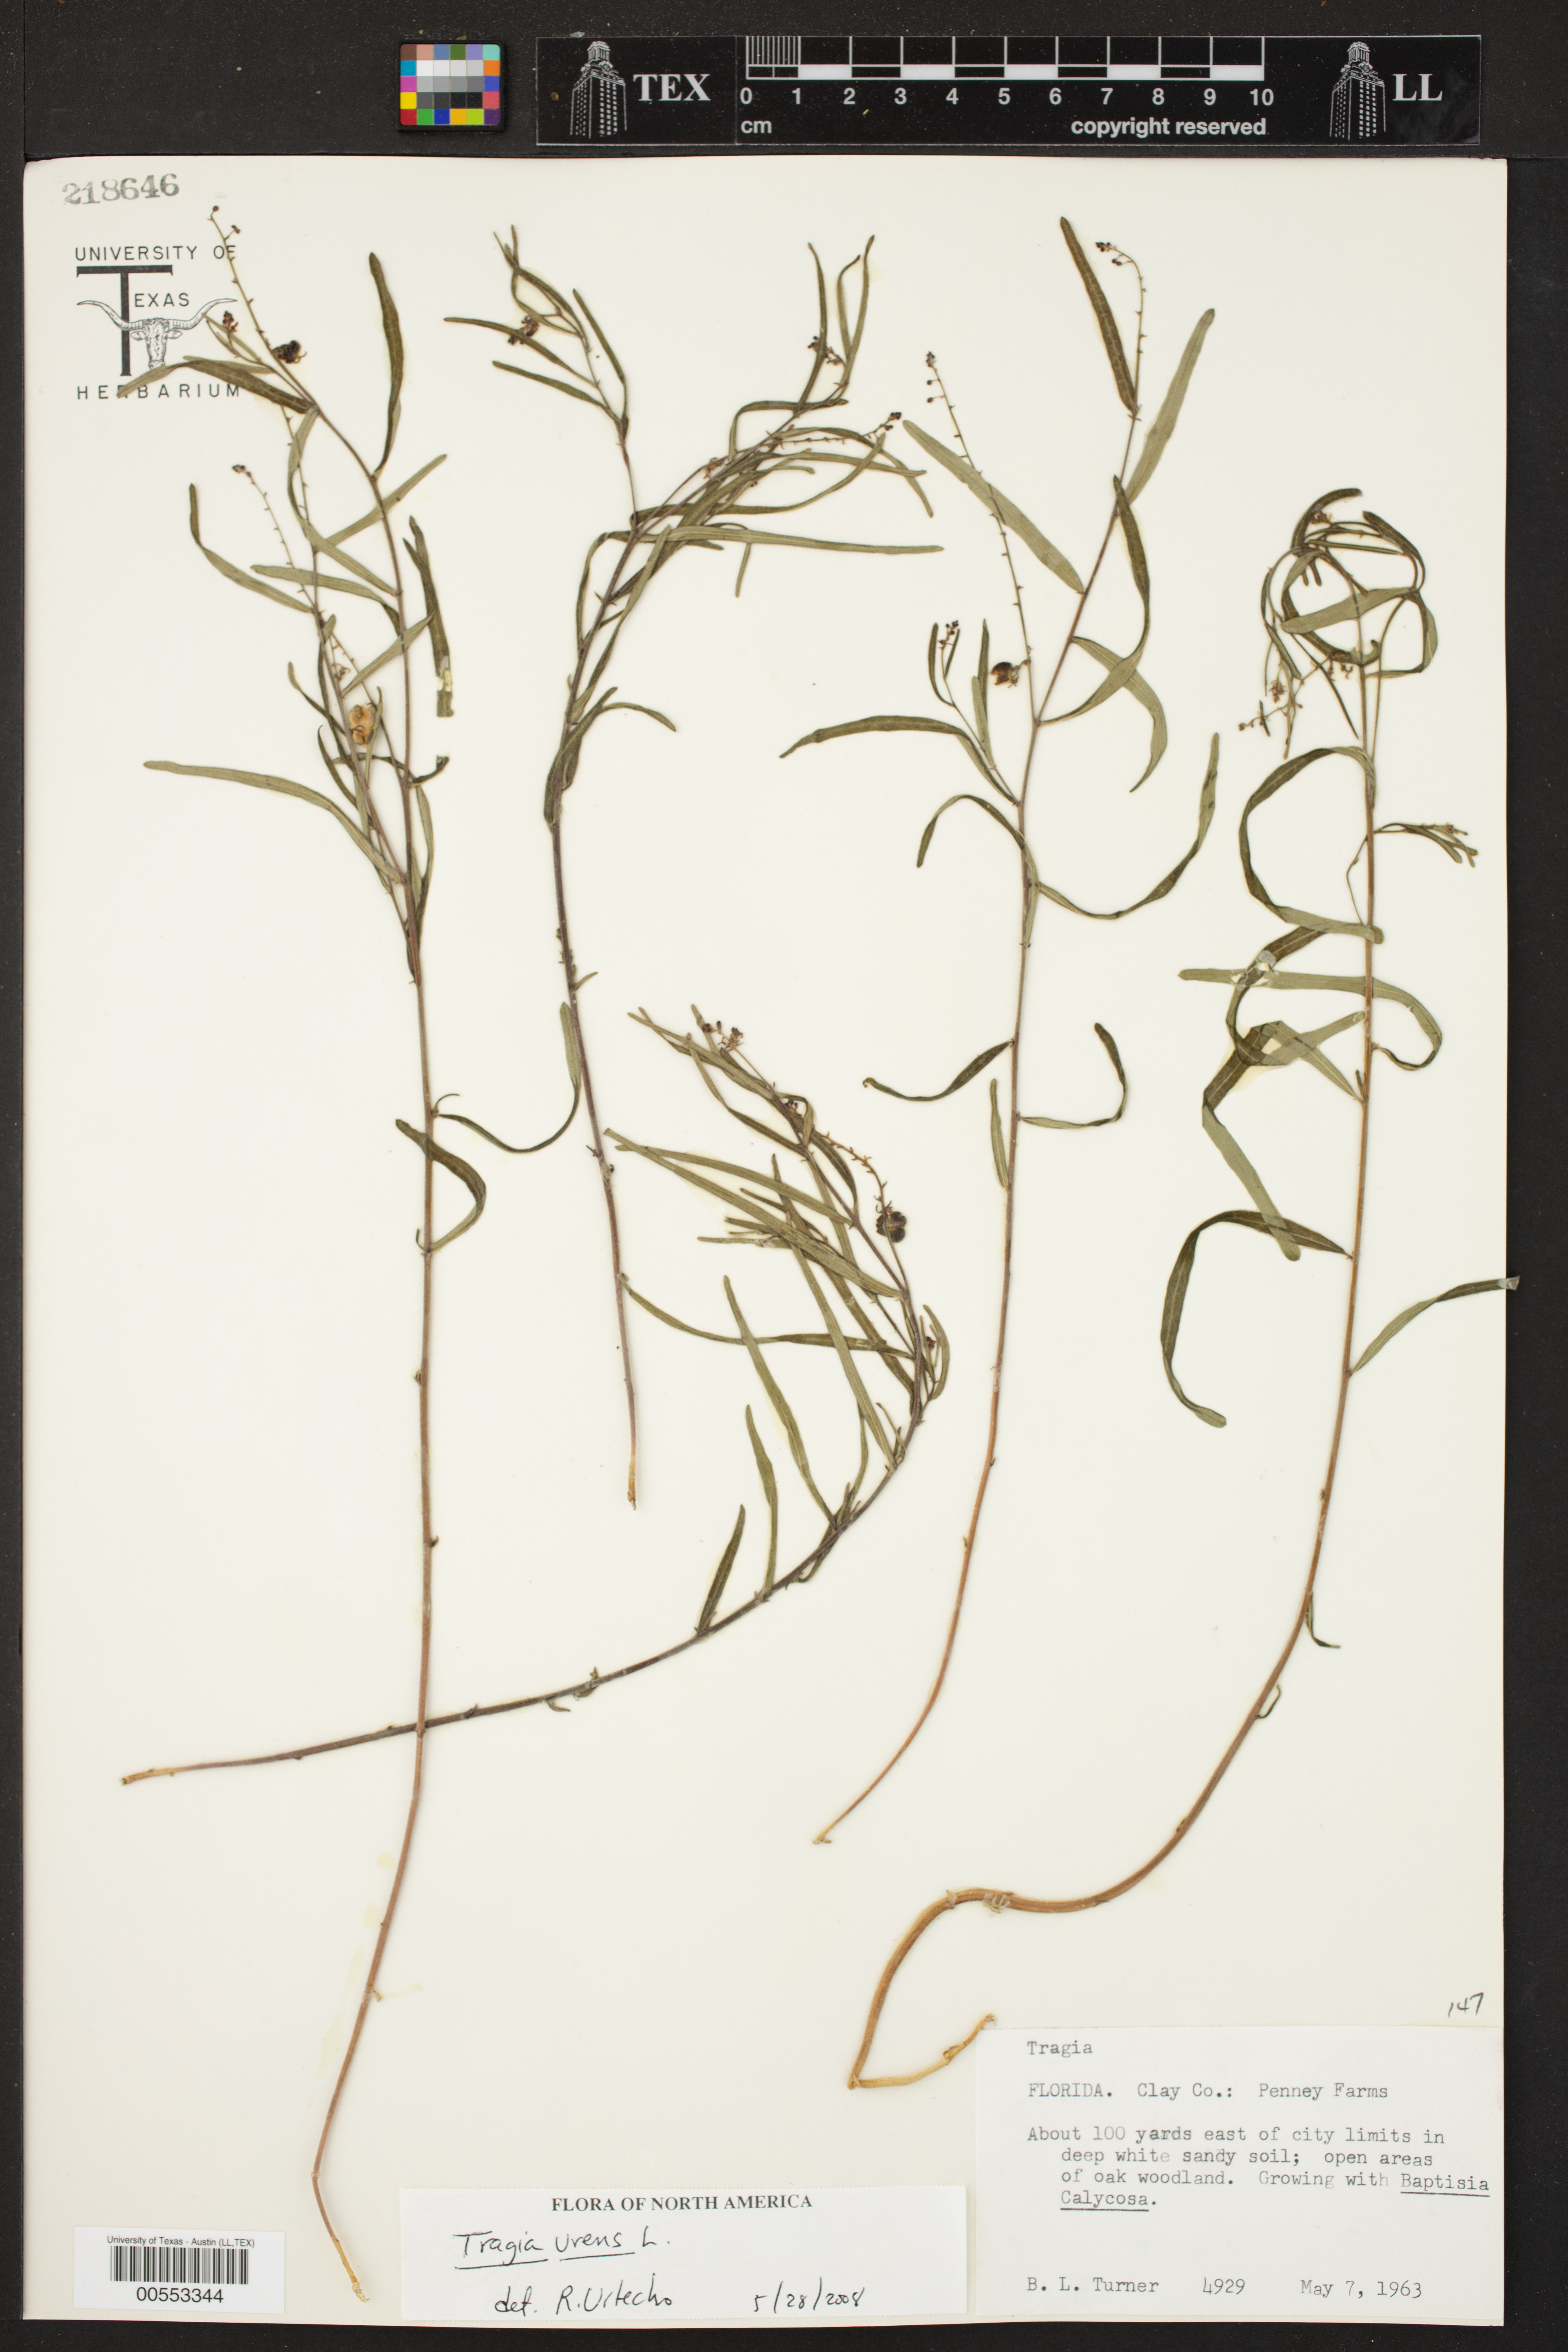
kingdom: Plantae
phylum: Tracheophyta
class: Magnoliopsida
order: Malpighiales
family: Euphorbiaceae
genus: Tragia
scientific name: Tragia urens
